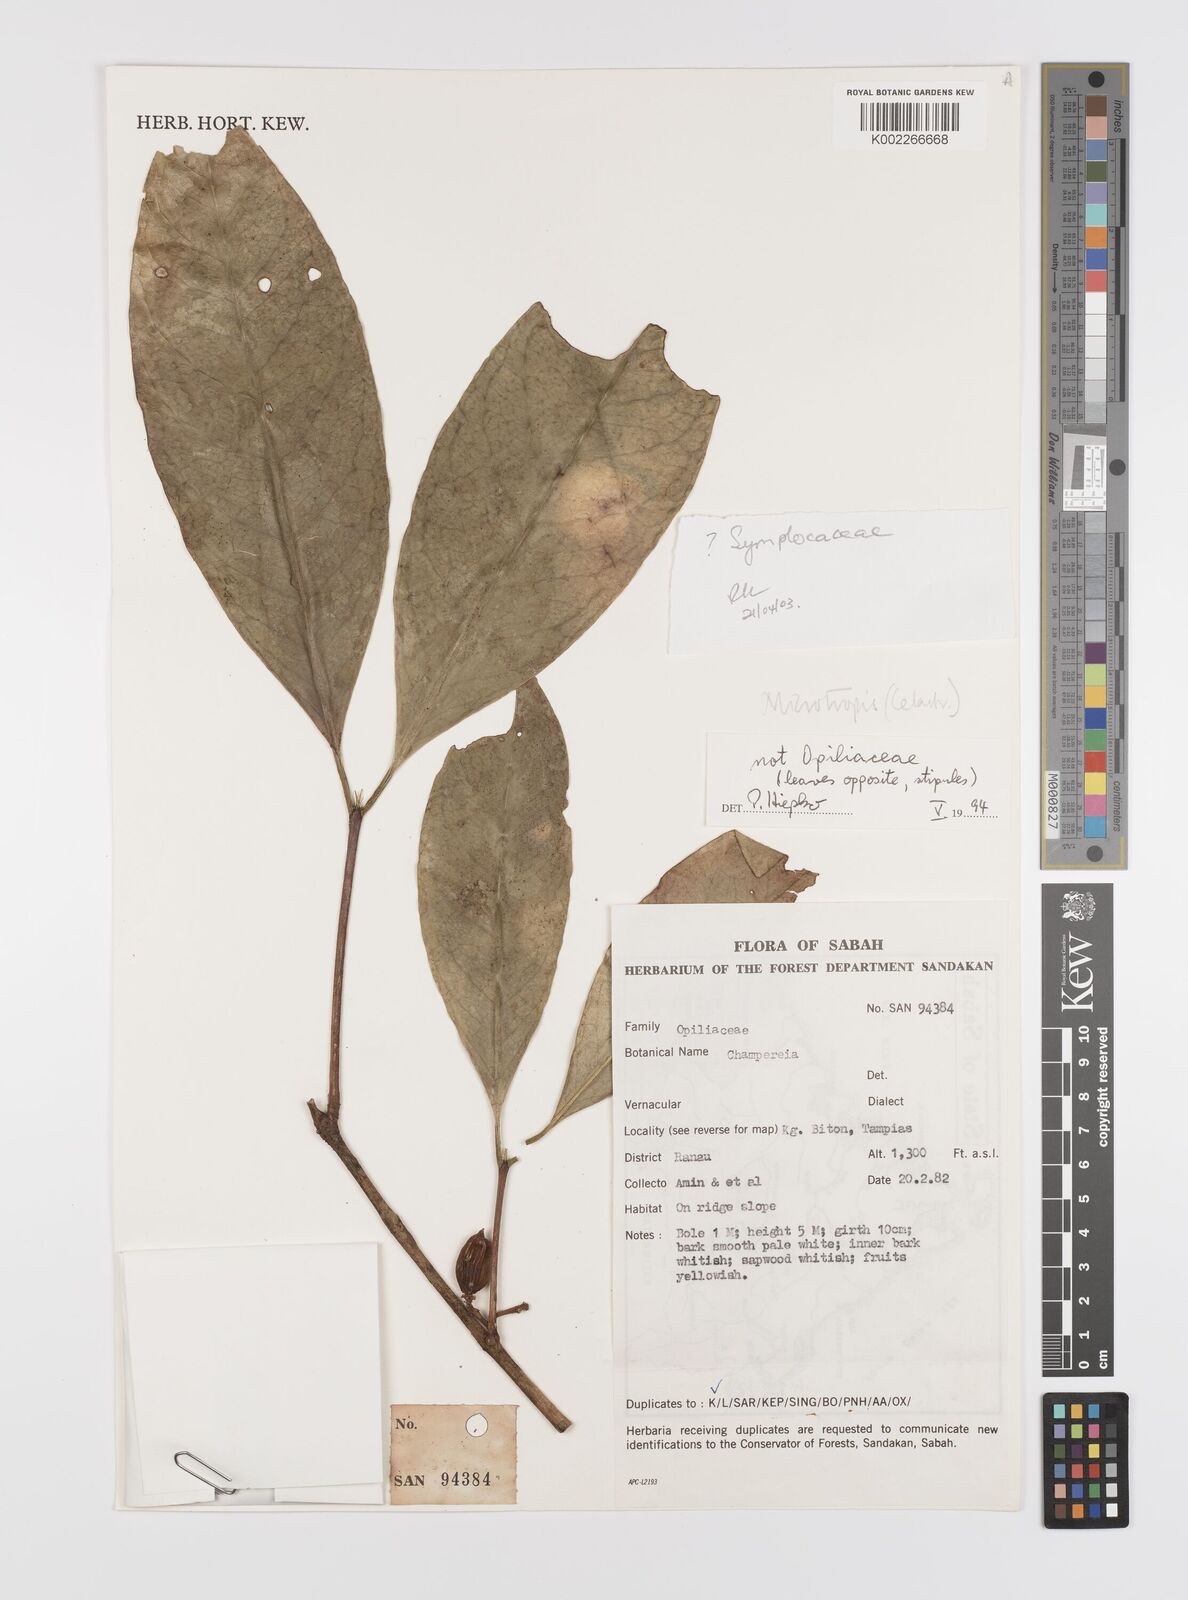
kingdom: Plantae
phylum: Tracheophyta
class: Magnoliopsida
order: Celastrales
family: Celastraceae
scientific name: Celastraceae
